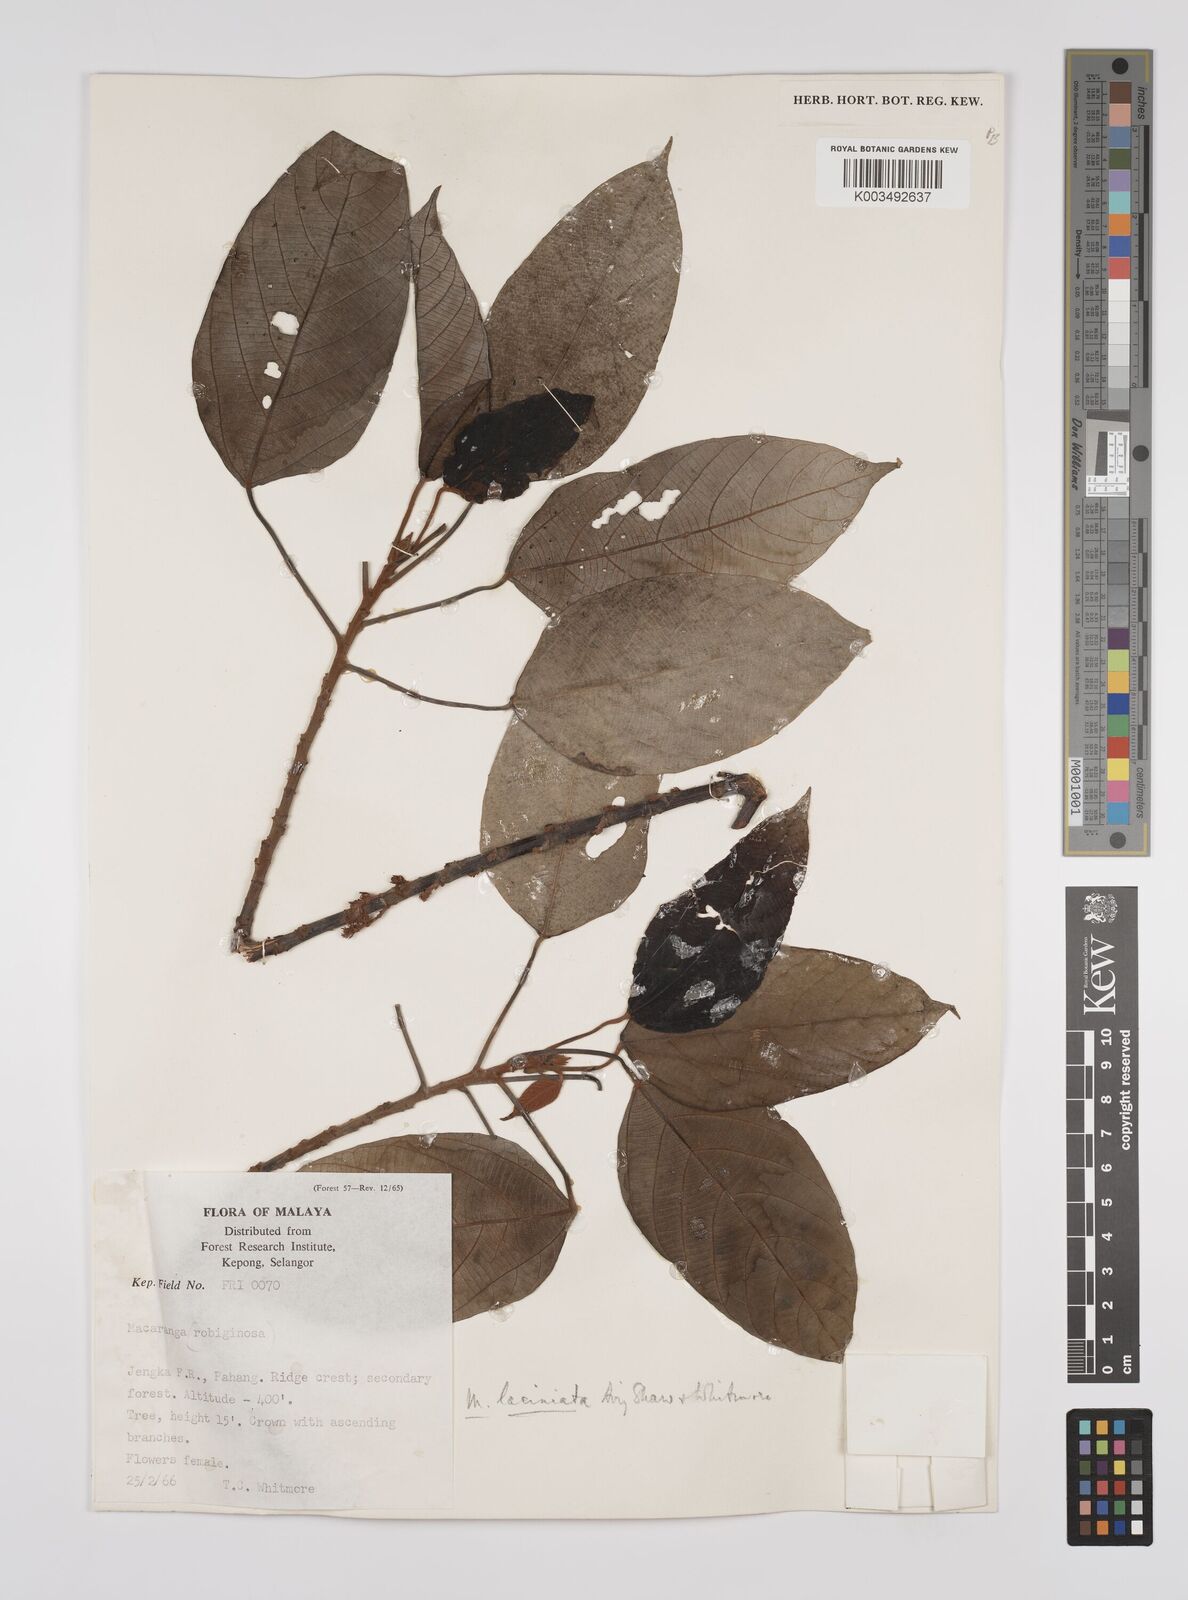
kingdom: Plantae
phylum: Tracheophyta
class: Magnoliopsida
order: Malpighiales
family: Euphorbiaceae
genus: Macaranga
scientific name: Macaranga laciniata
